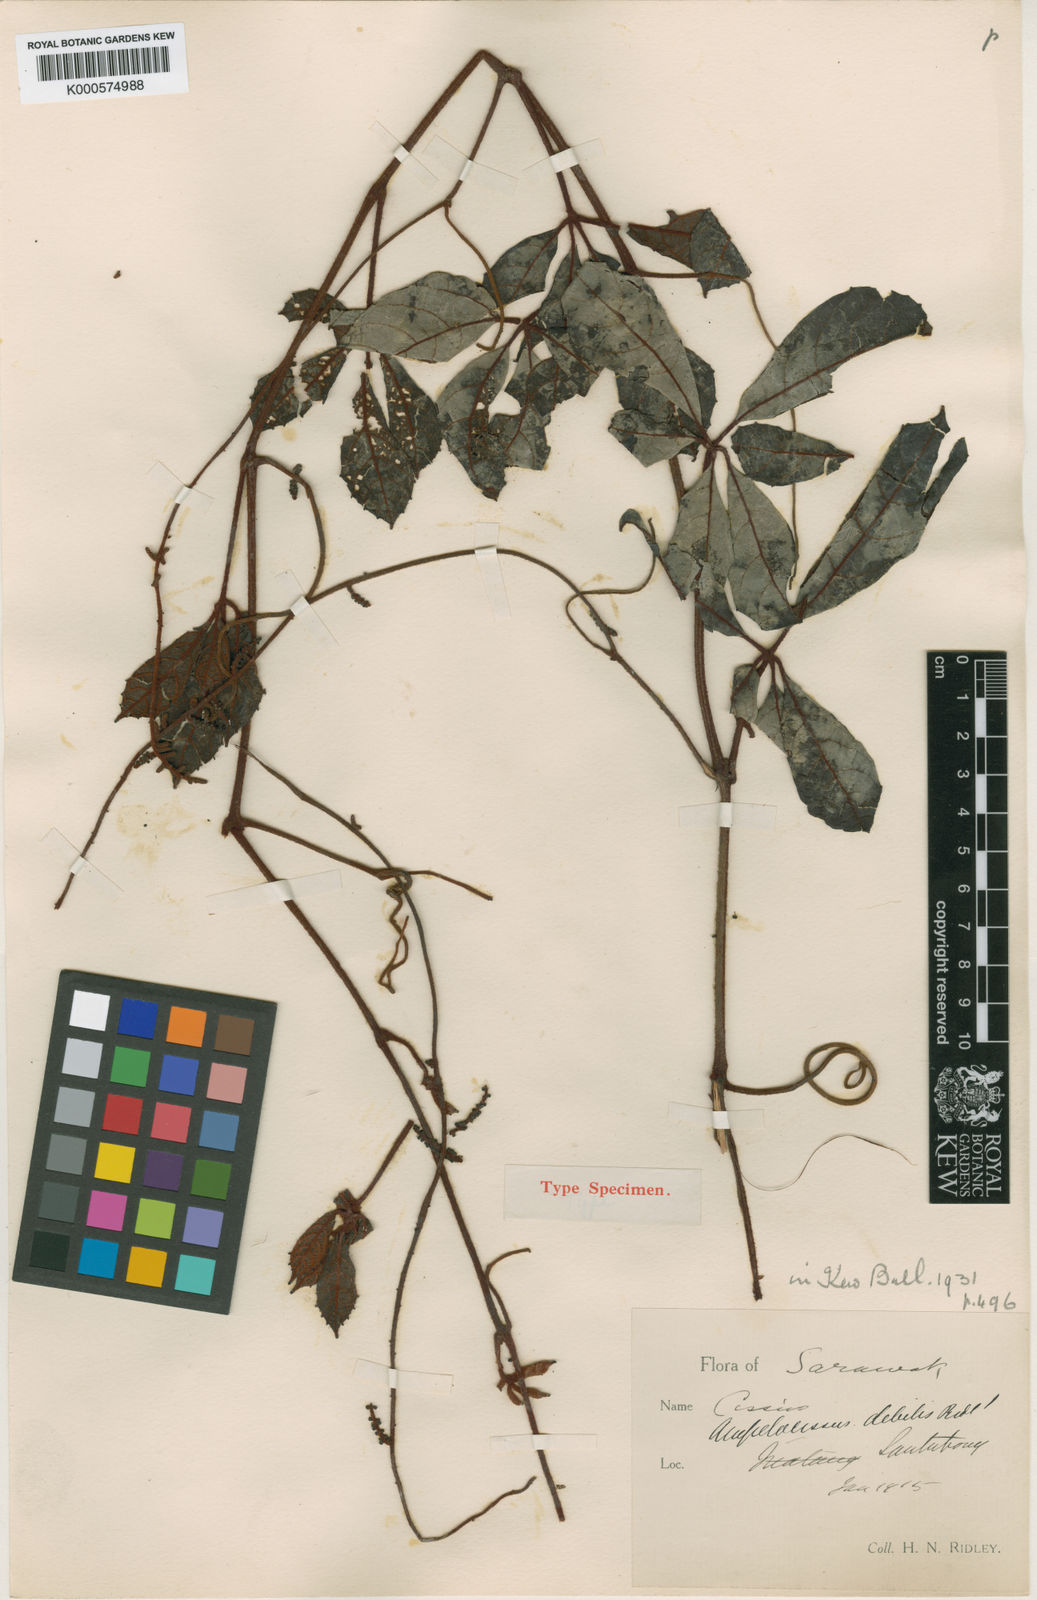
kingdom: Plantae
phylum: Tracheophyta
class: Magnoliopsida
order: Vitales
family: Vitaceae
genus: Ampelocissus
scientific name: Ampelocissus debilis
